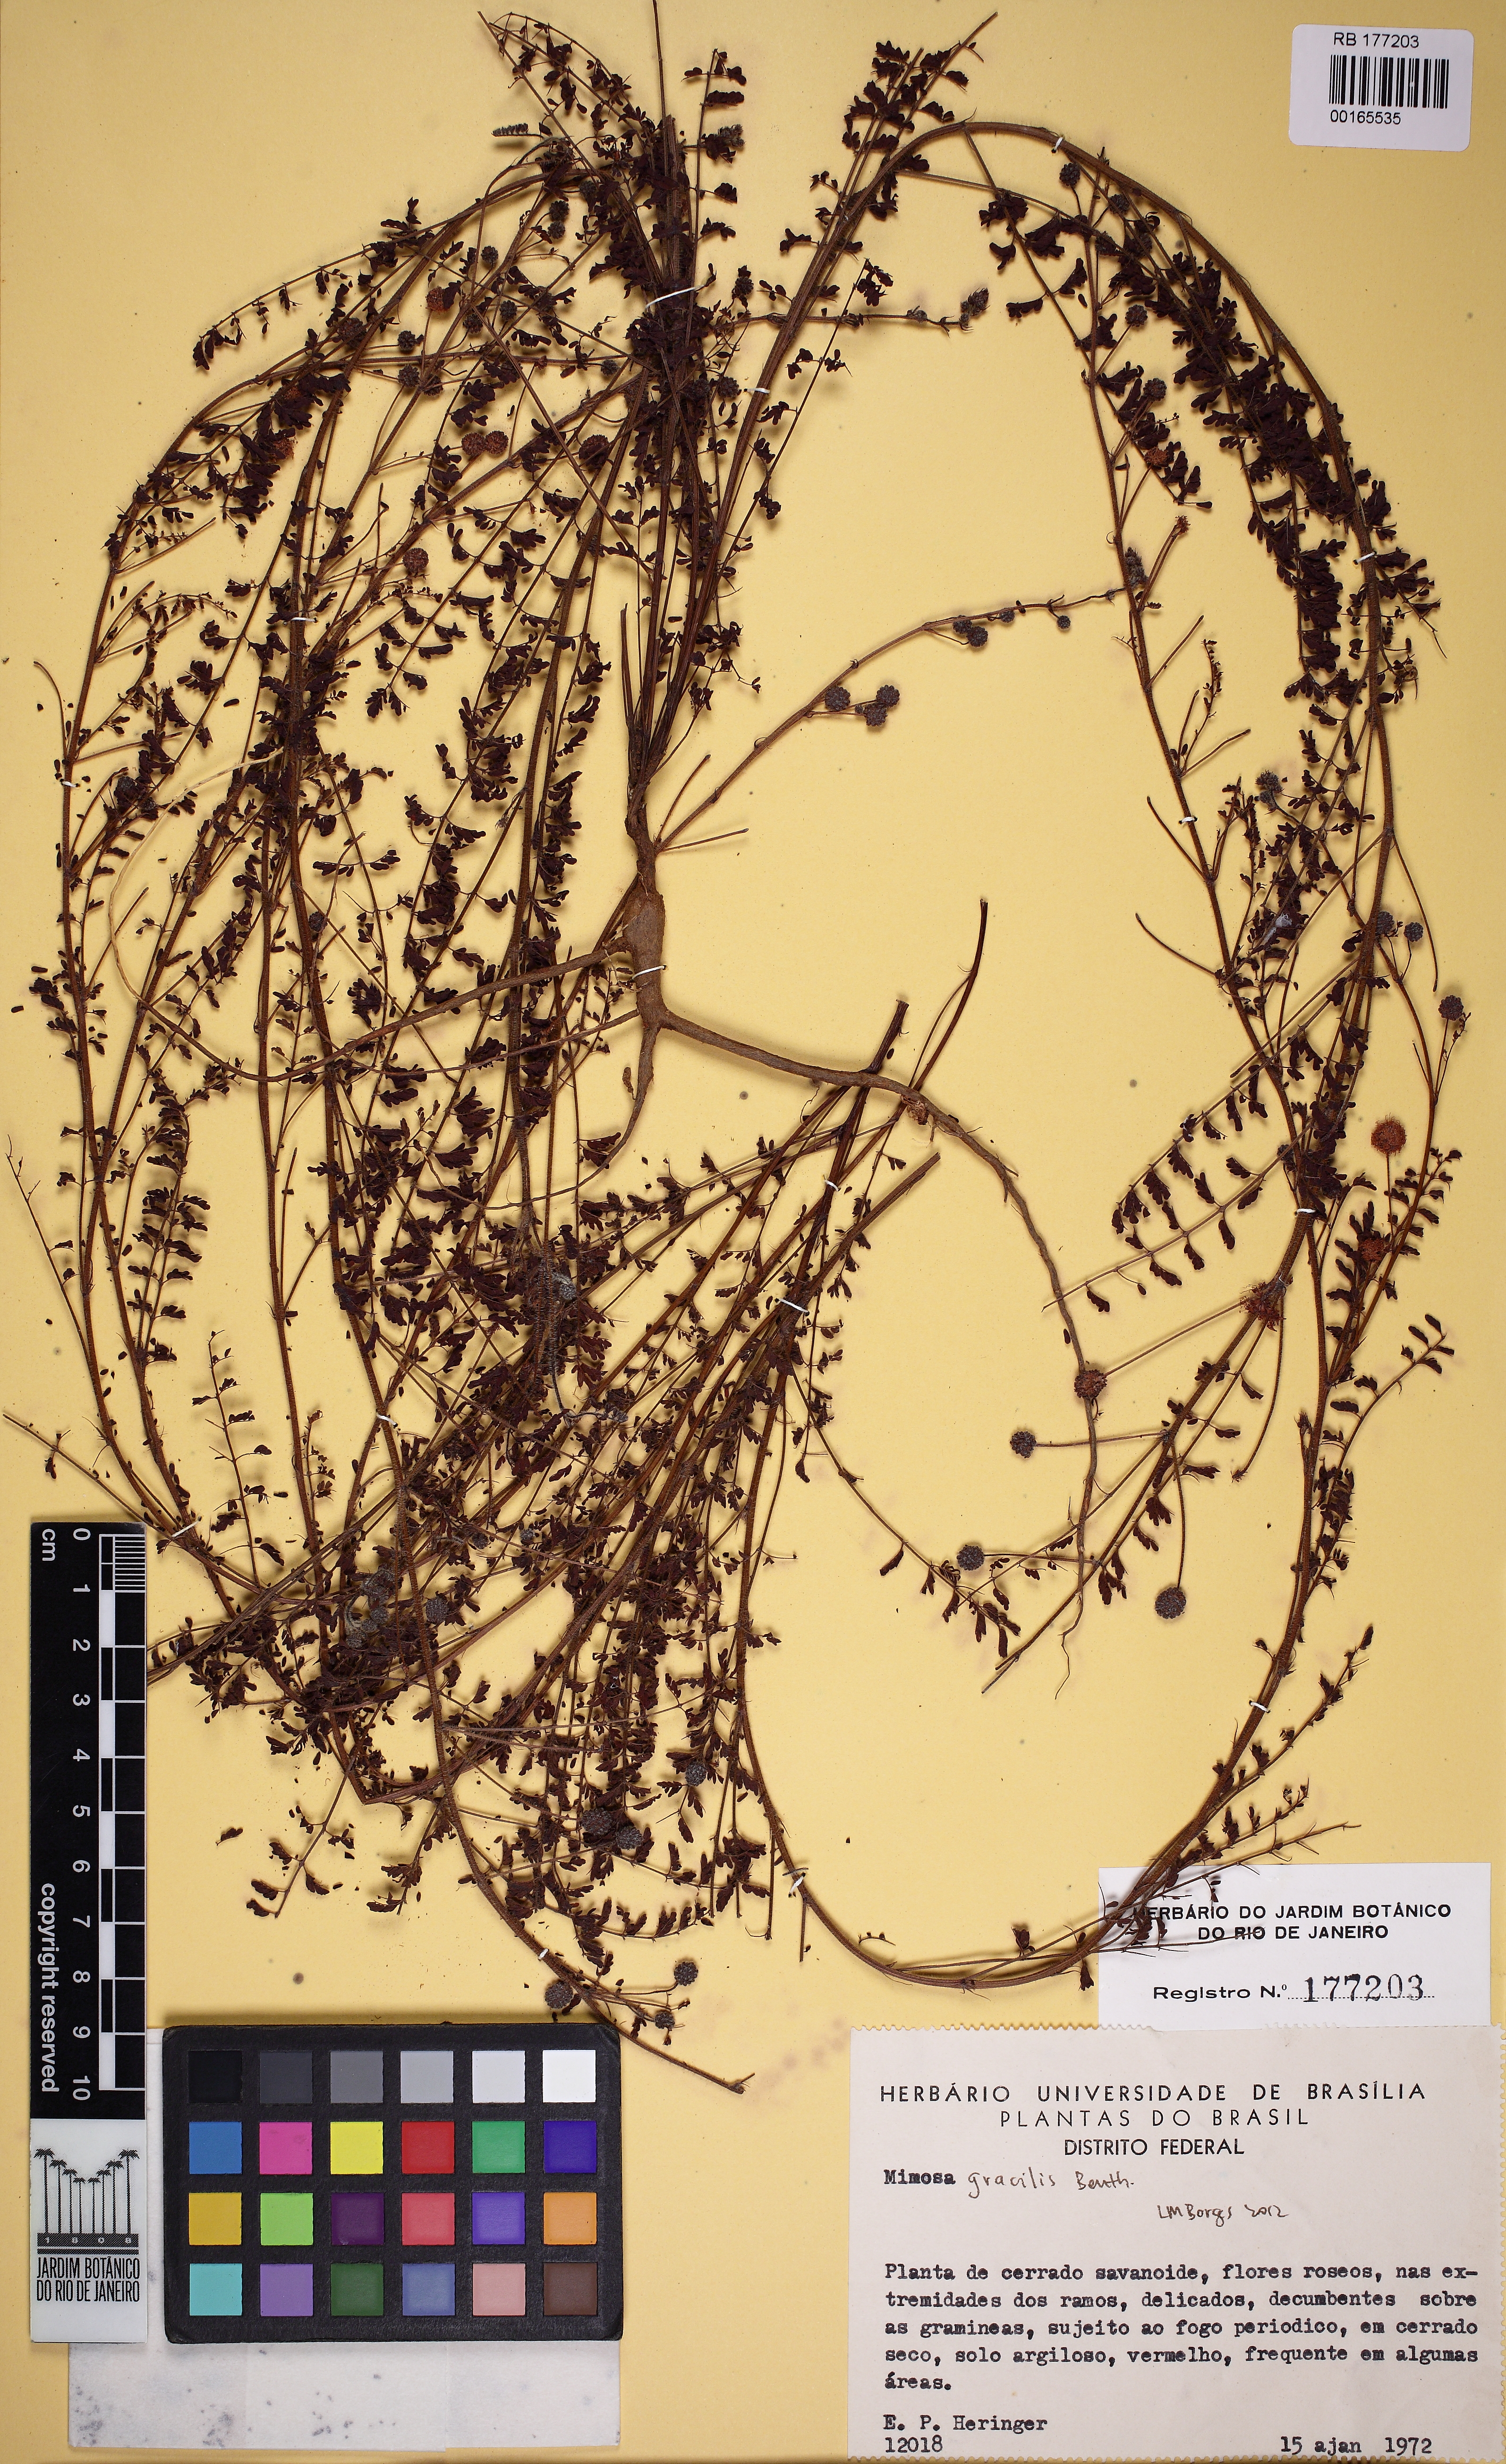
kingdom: Plantae
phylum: Tracheophyta
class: Magnoliopsida
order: Fabales
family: Fabaceae
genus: Mimosa
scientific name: Mimosa gracilis
